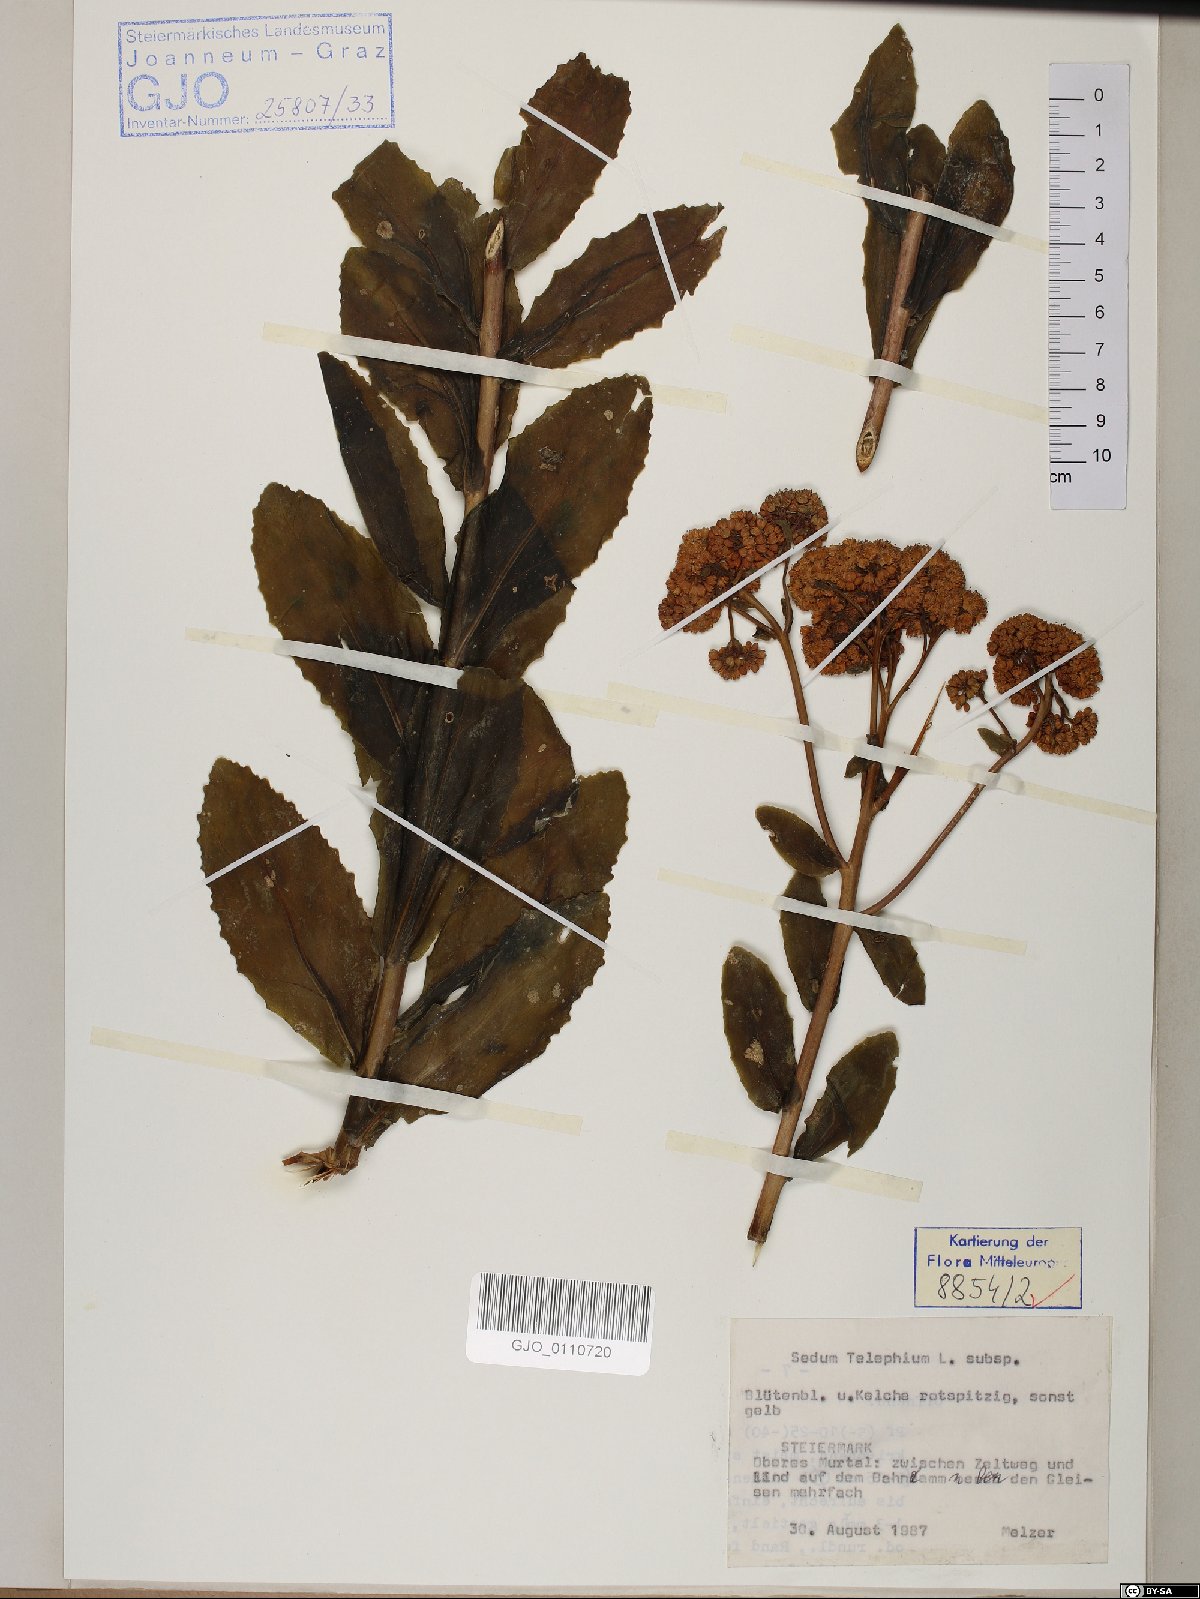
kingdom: Plantae
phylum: Tracheophyta
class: Magnoliopsida
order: Saxifragales
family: Crassulaceae
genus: Hylotelephium
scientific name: Hylotelephium telephium
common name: Live-forever
